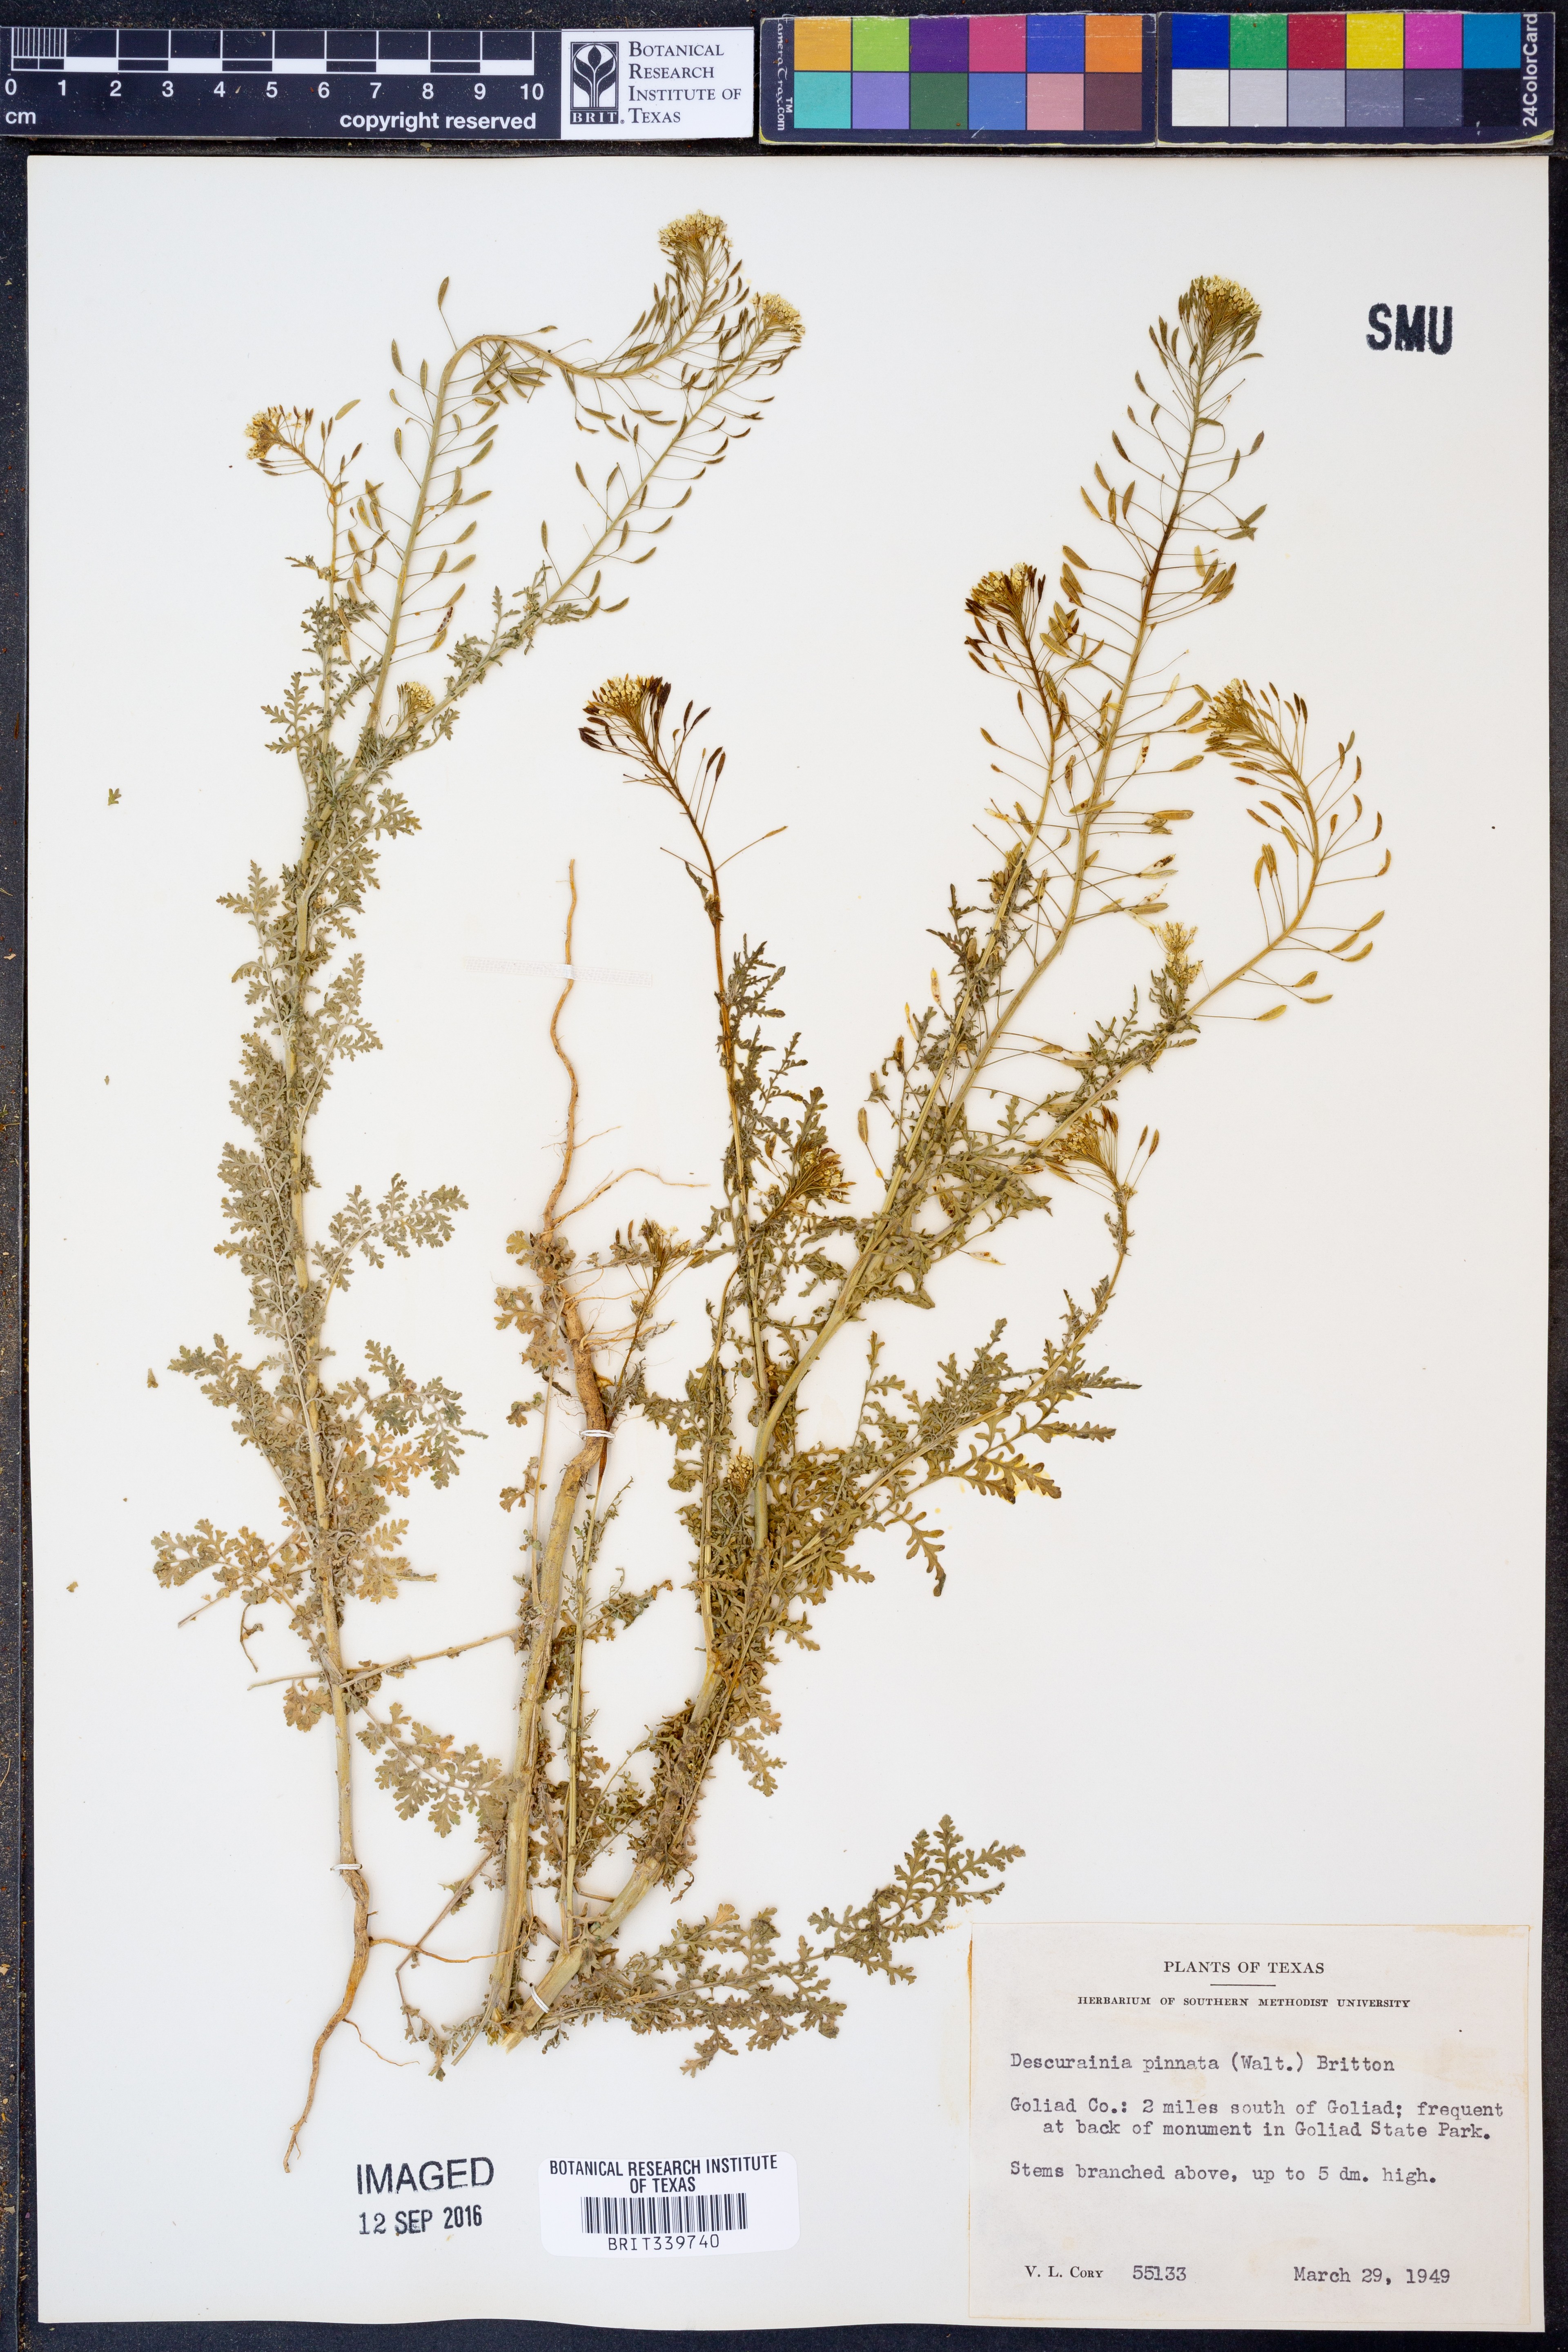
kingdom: Plantae
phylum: Tracheophyta
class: Magnoliopsida
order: Brassicales
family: Brassicaceae
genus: Descurainia
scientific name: Descurainia pinnata
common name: Western tansy mustard
